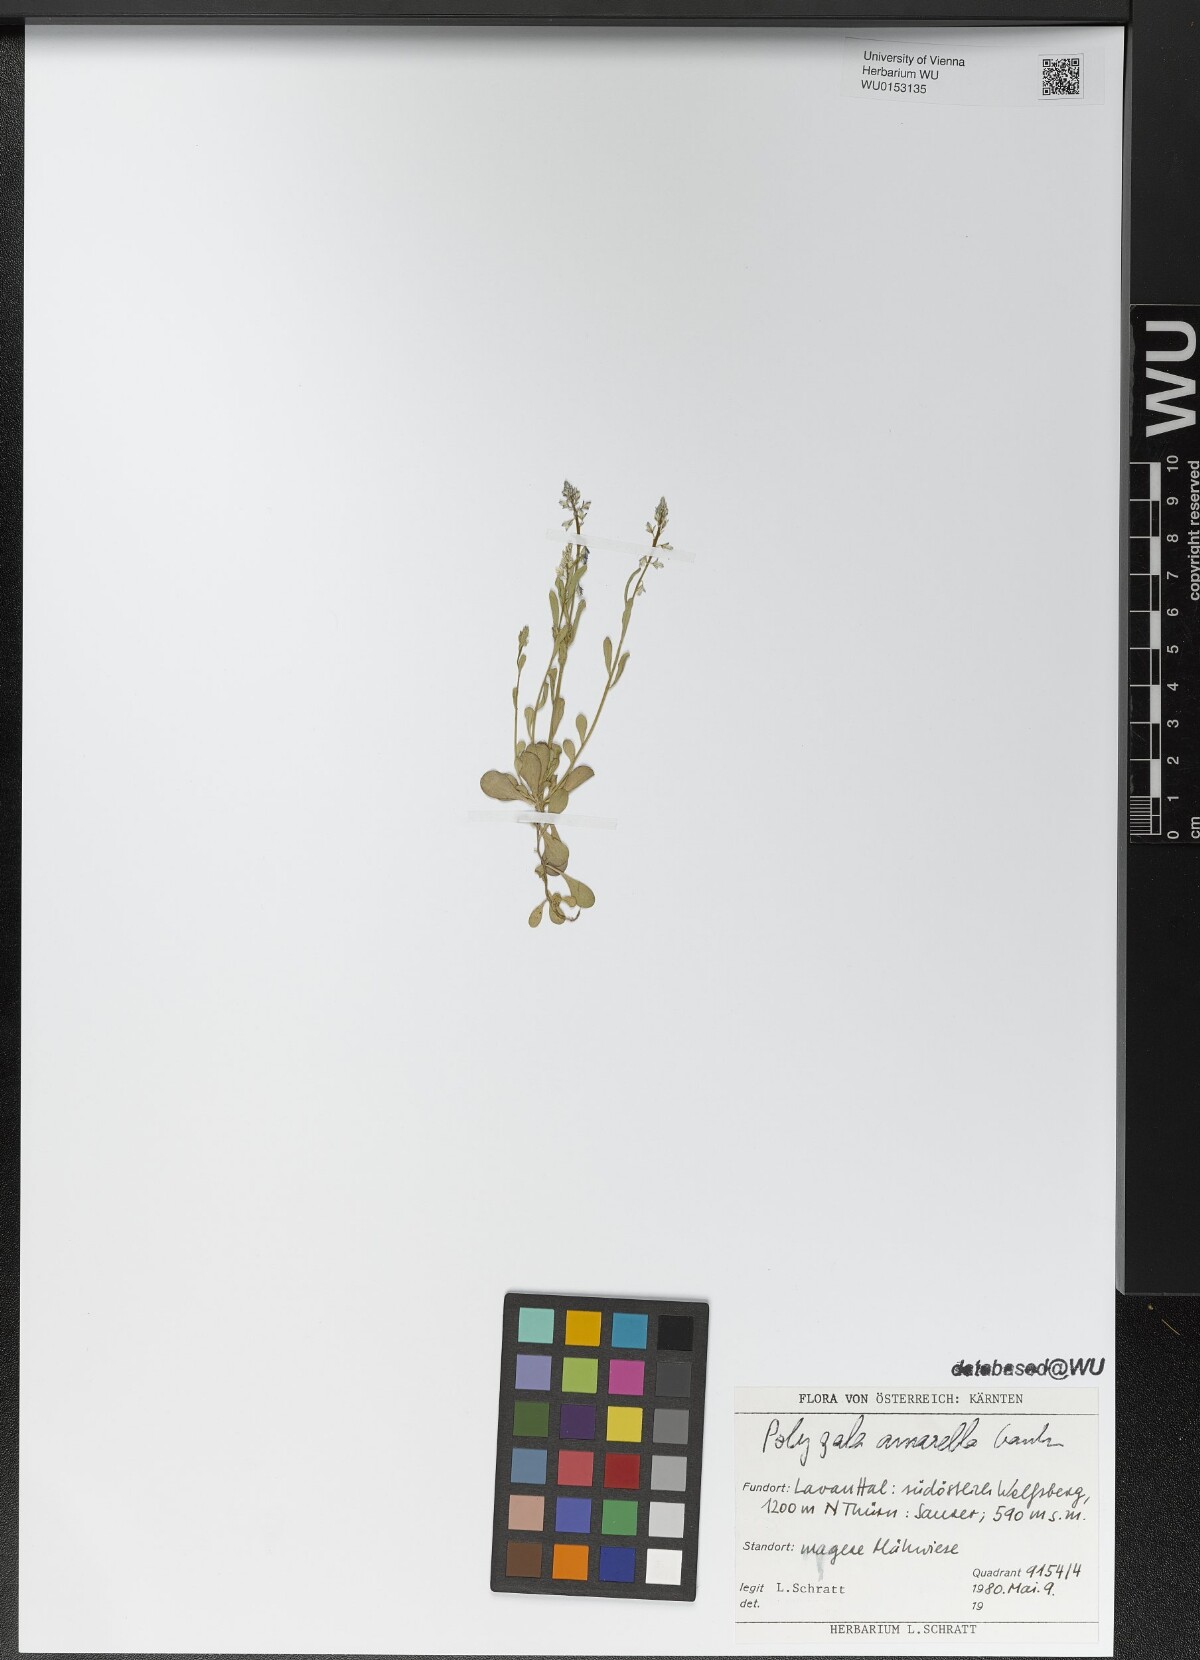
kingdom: Plantae
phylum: Tracheophyta
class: Magnoliopsida
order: Fabales
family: Polygalaceae
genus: Polygala
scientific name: Polygala amarella
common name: Dwarf milkwort
